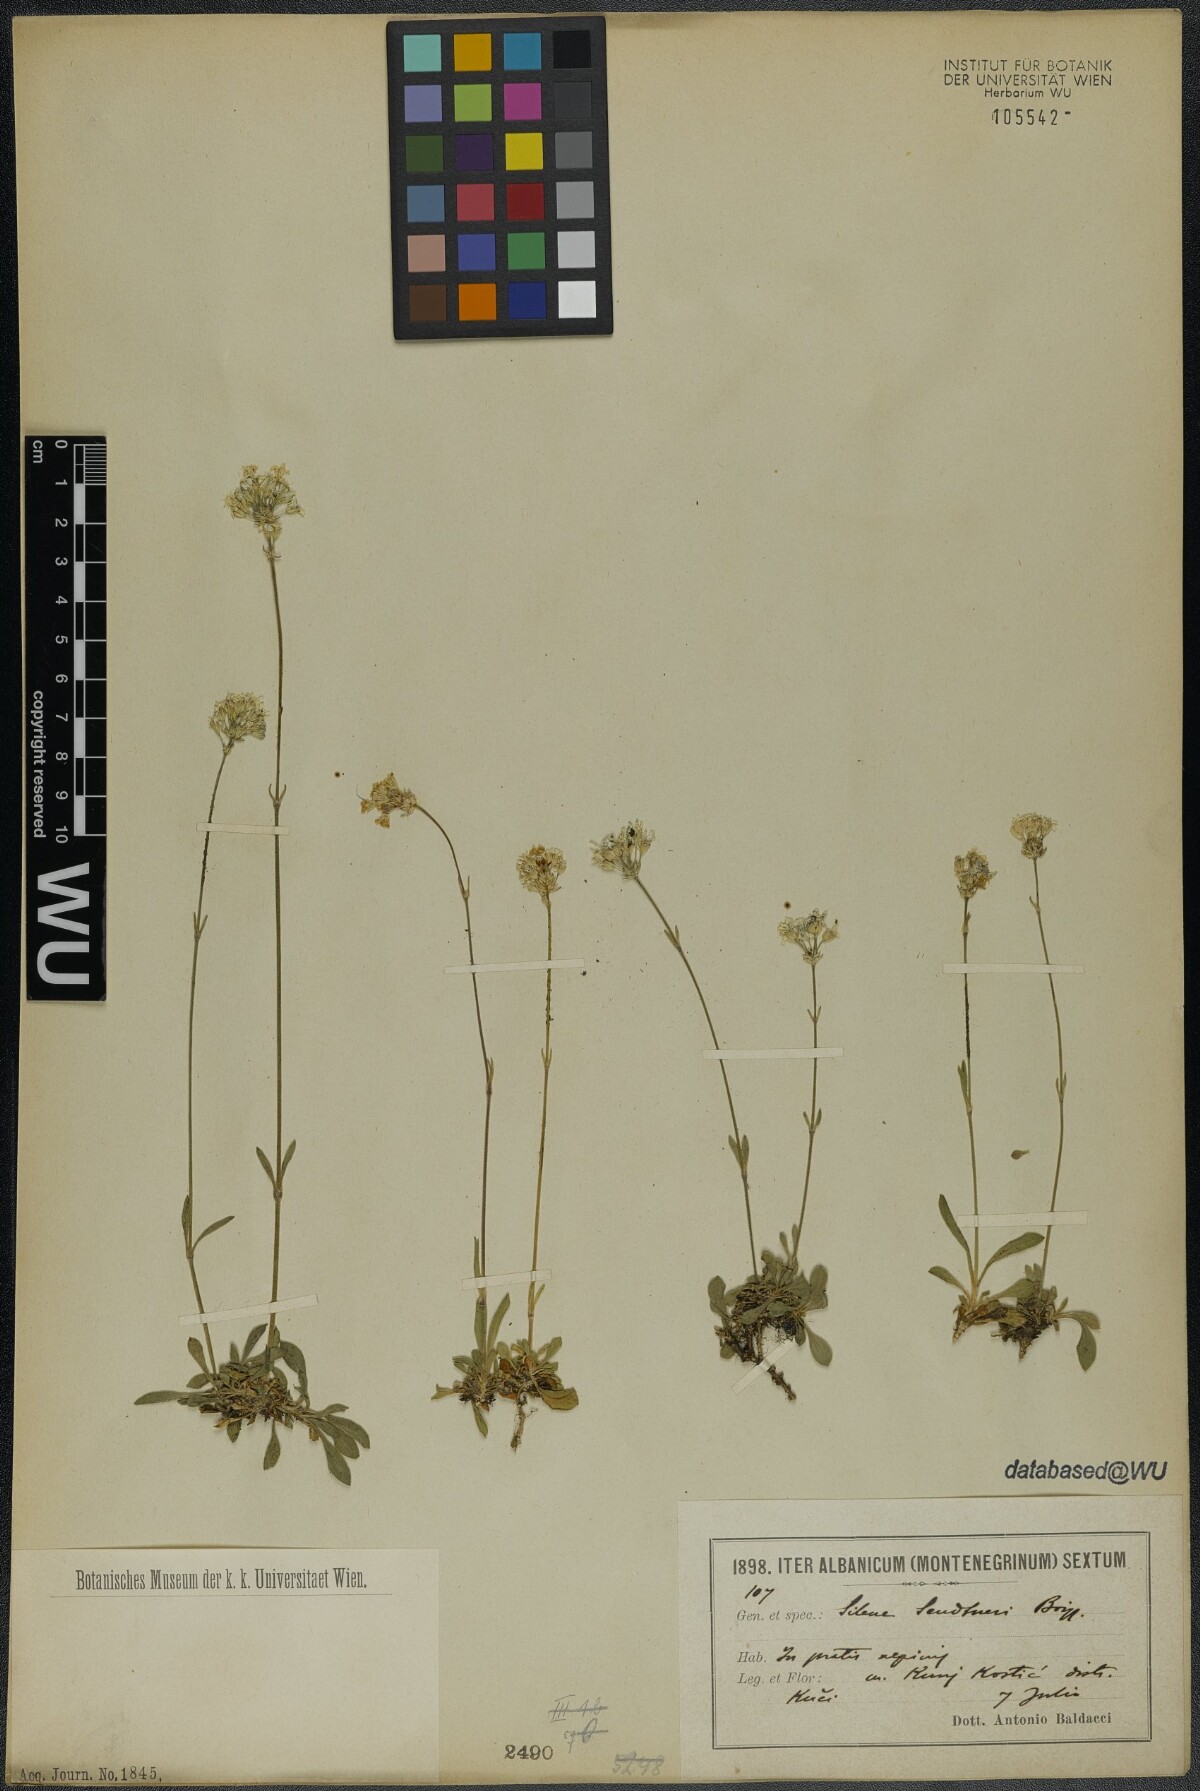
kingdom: Plantae
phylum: Tracheophyta
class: Magnoliopsida
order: Caryophyllales
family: Caryophyllaceae
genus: Silene
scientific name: Silene sendtneri
